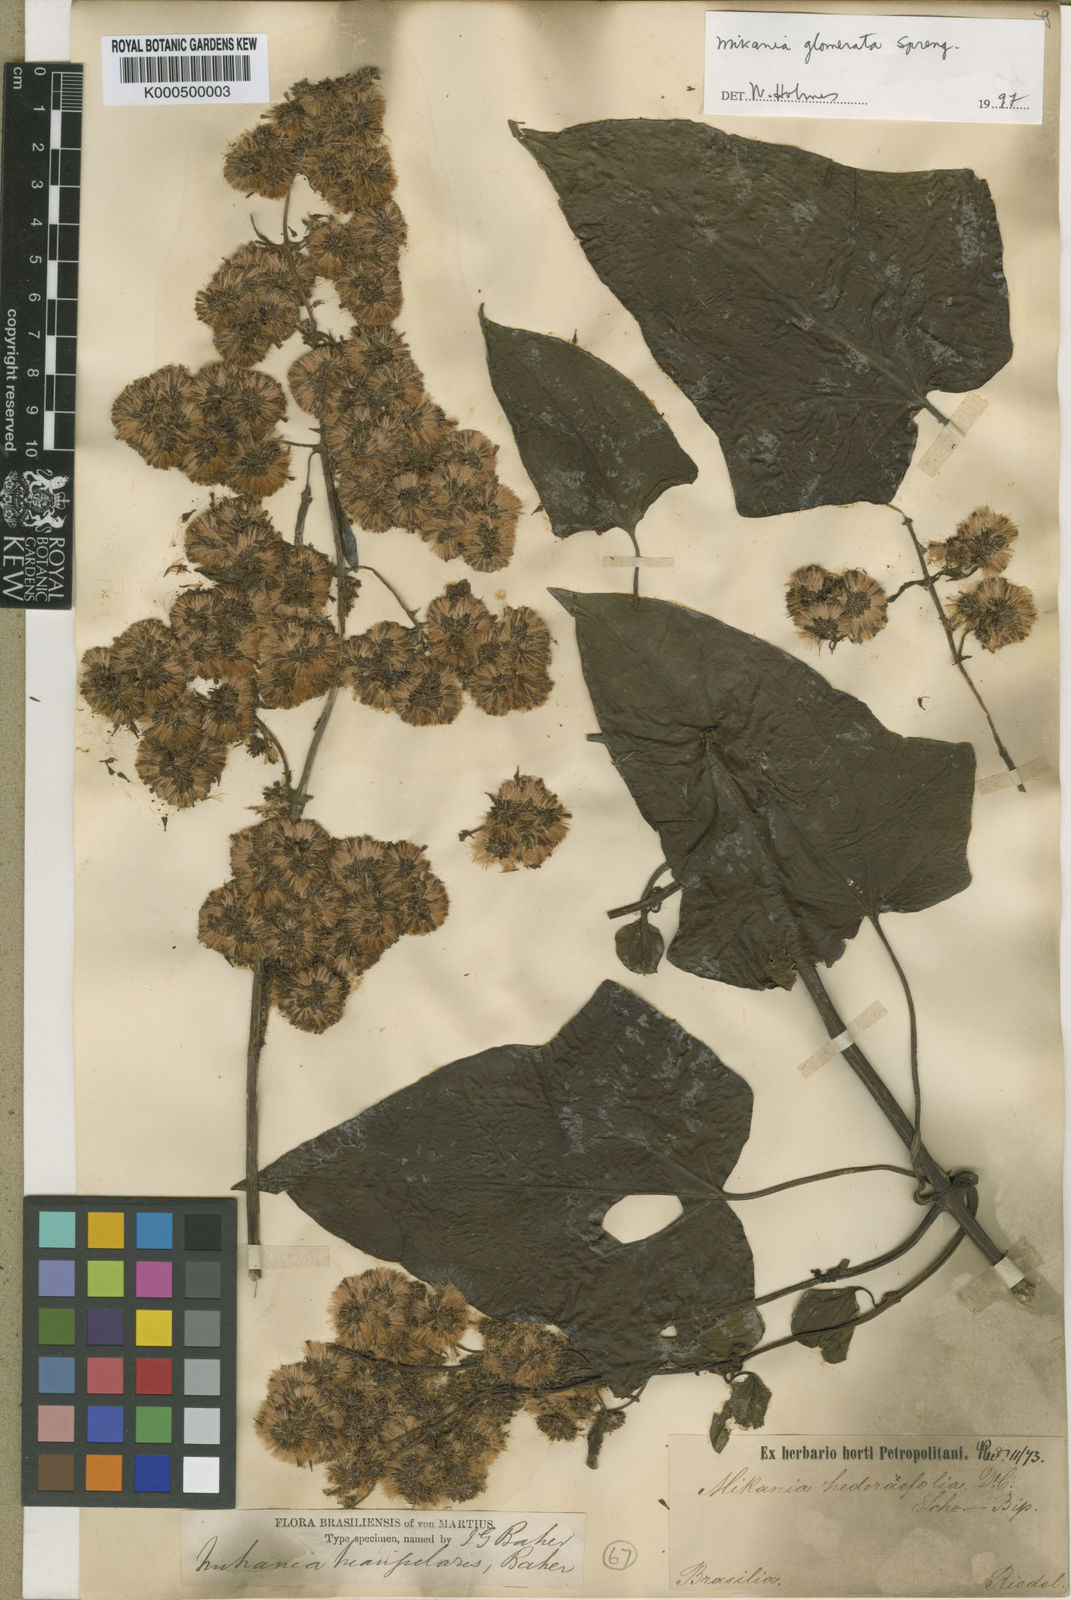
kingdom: Plantae
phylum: Tracheophyta
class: Magnoliopsida
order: Asterales
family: Asteraceae
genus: Mikania
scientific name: Mikania triangularis
